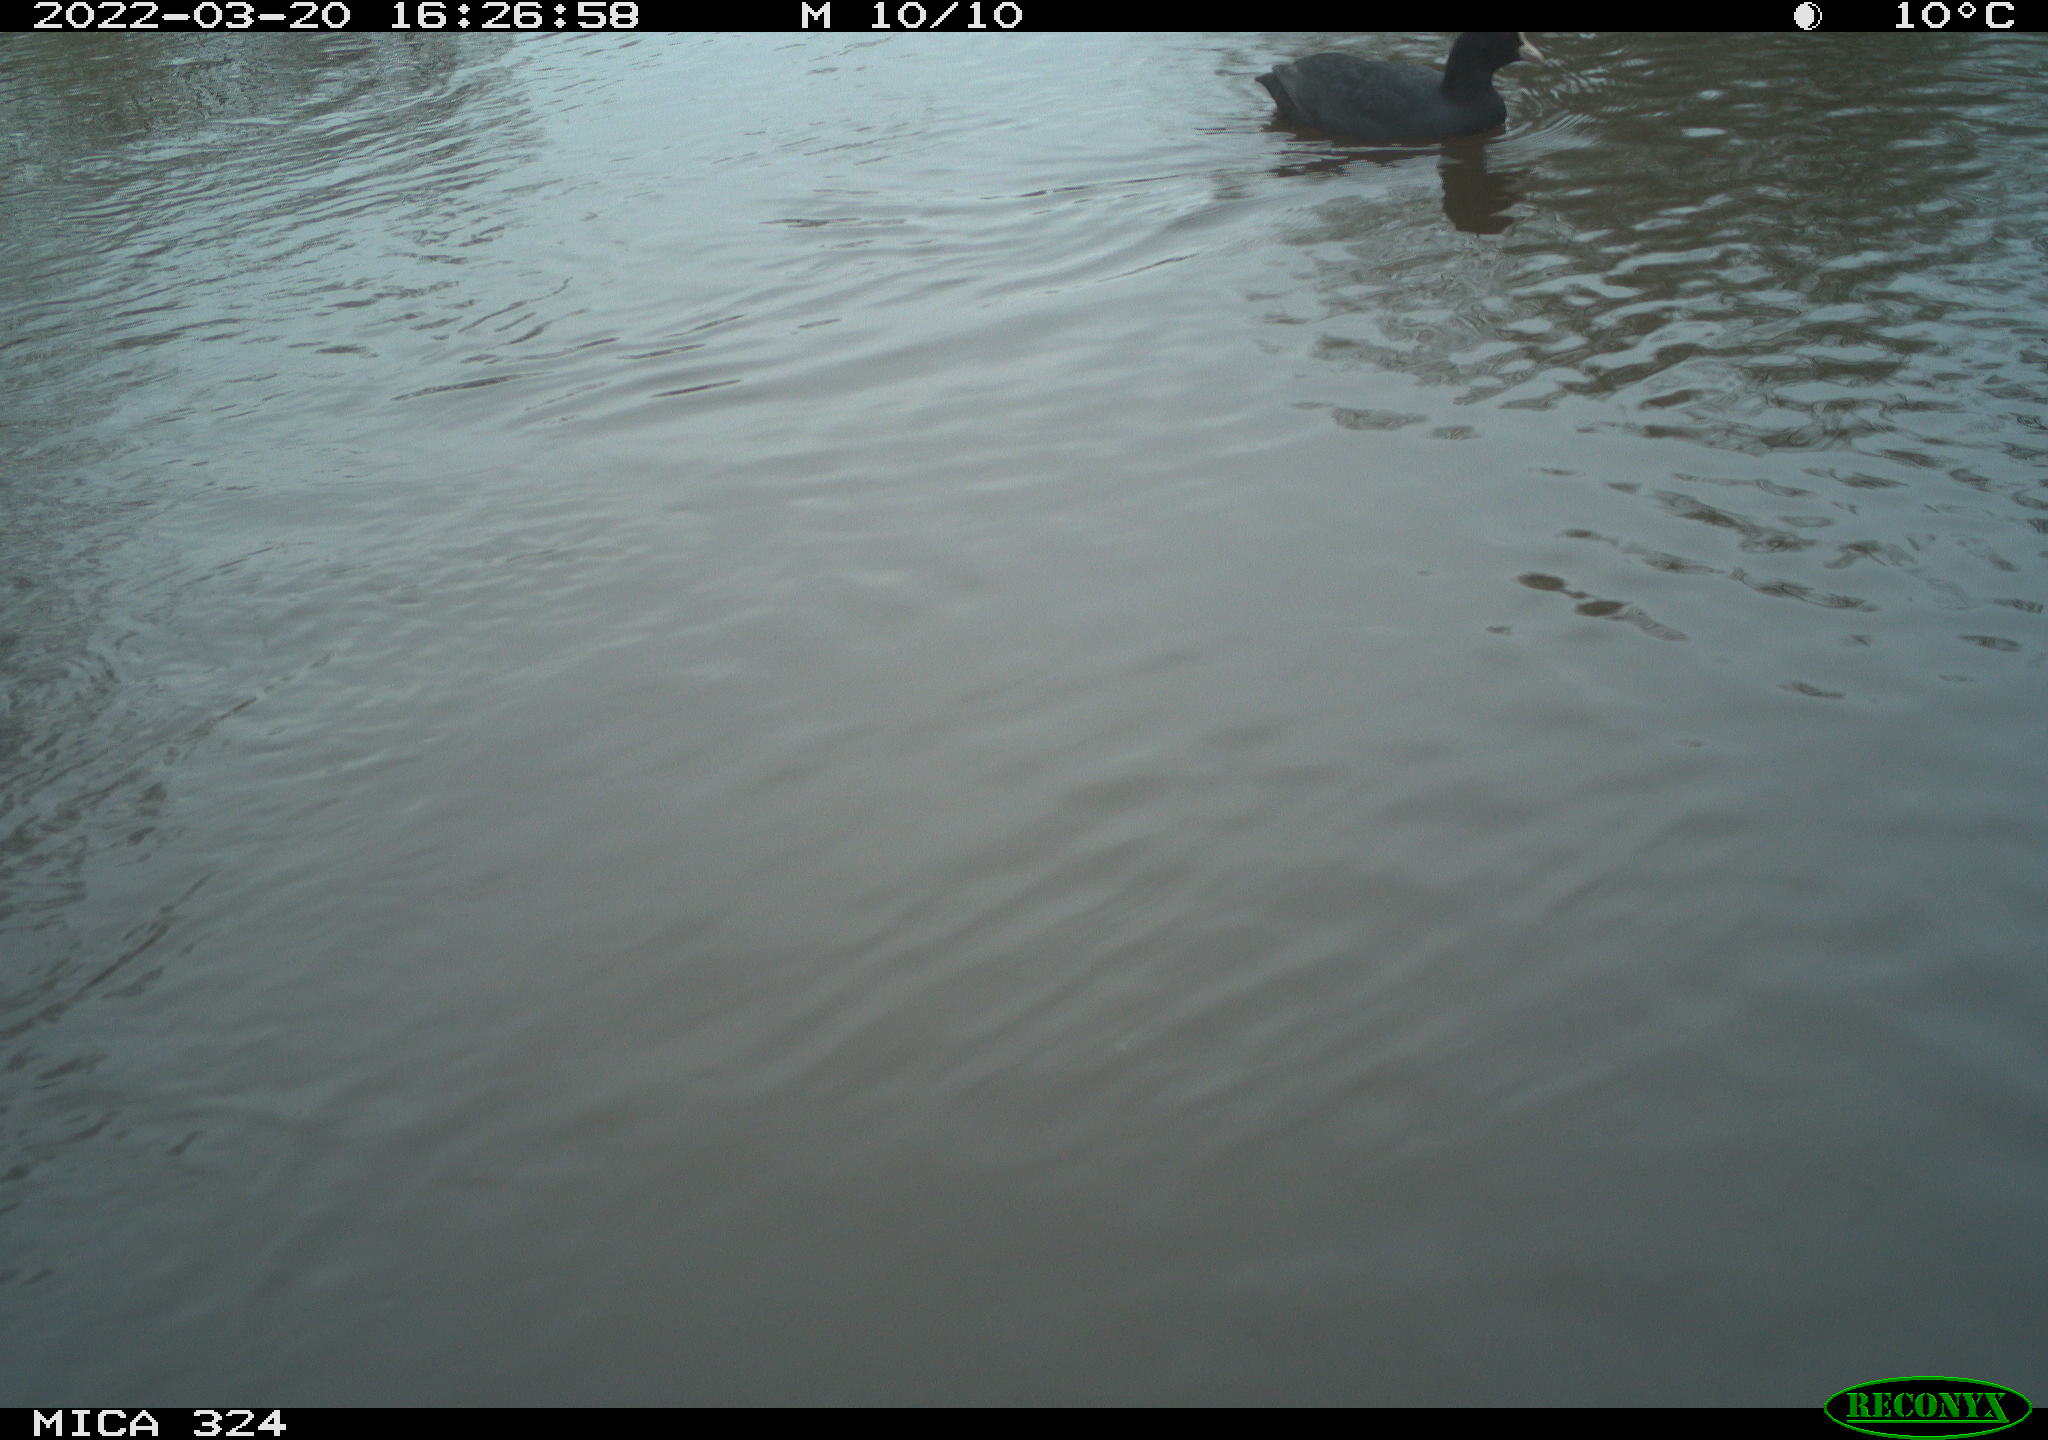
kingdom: Animalia
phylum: Chordata
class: Aves
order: Gruiformes
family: Rallidae
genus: Fulica
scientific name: Fulica atra
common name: Eurasian coot
